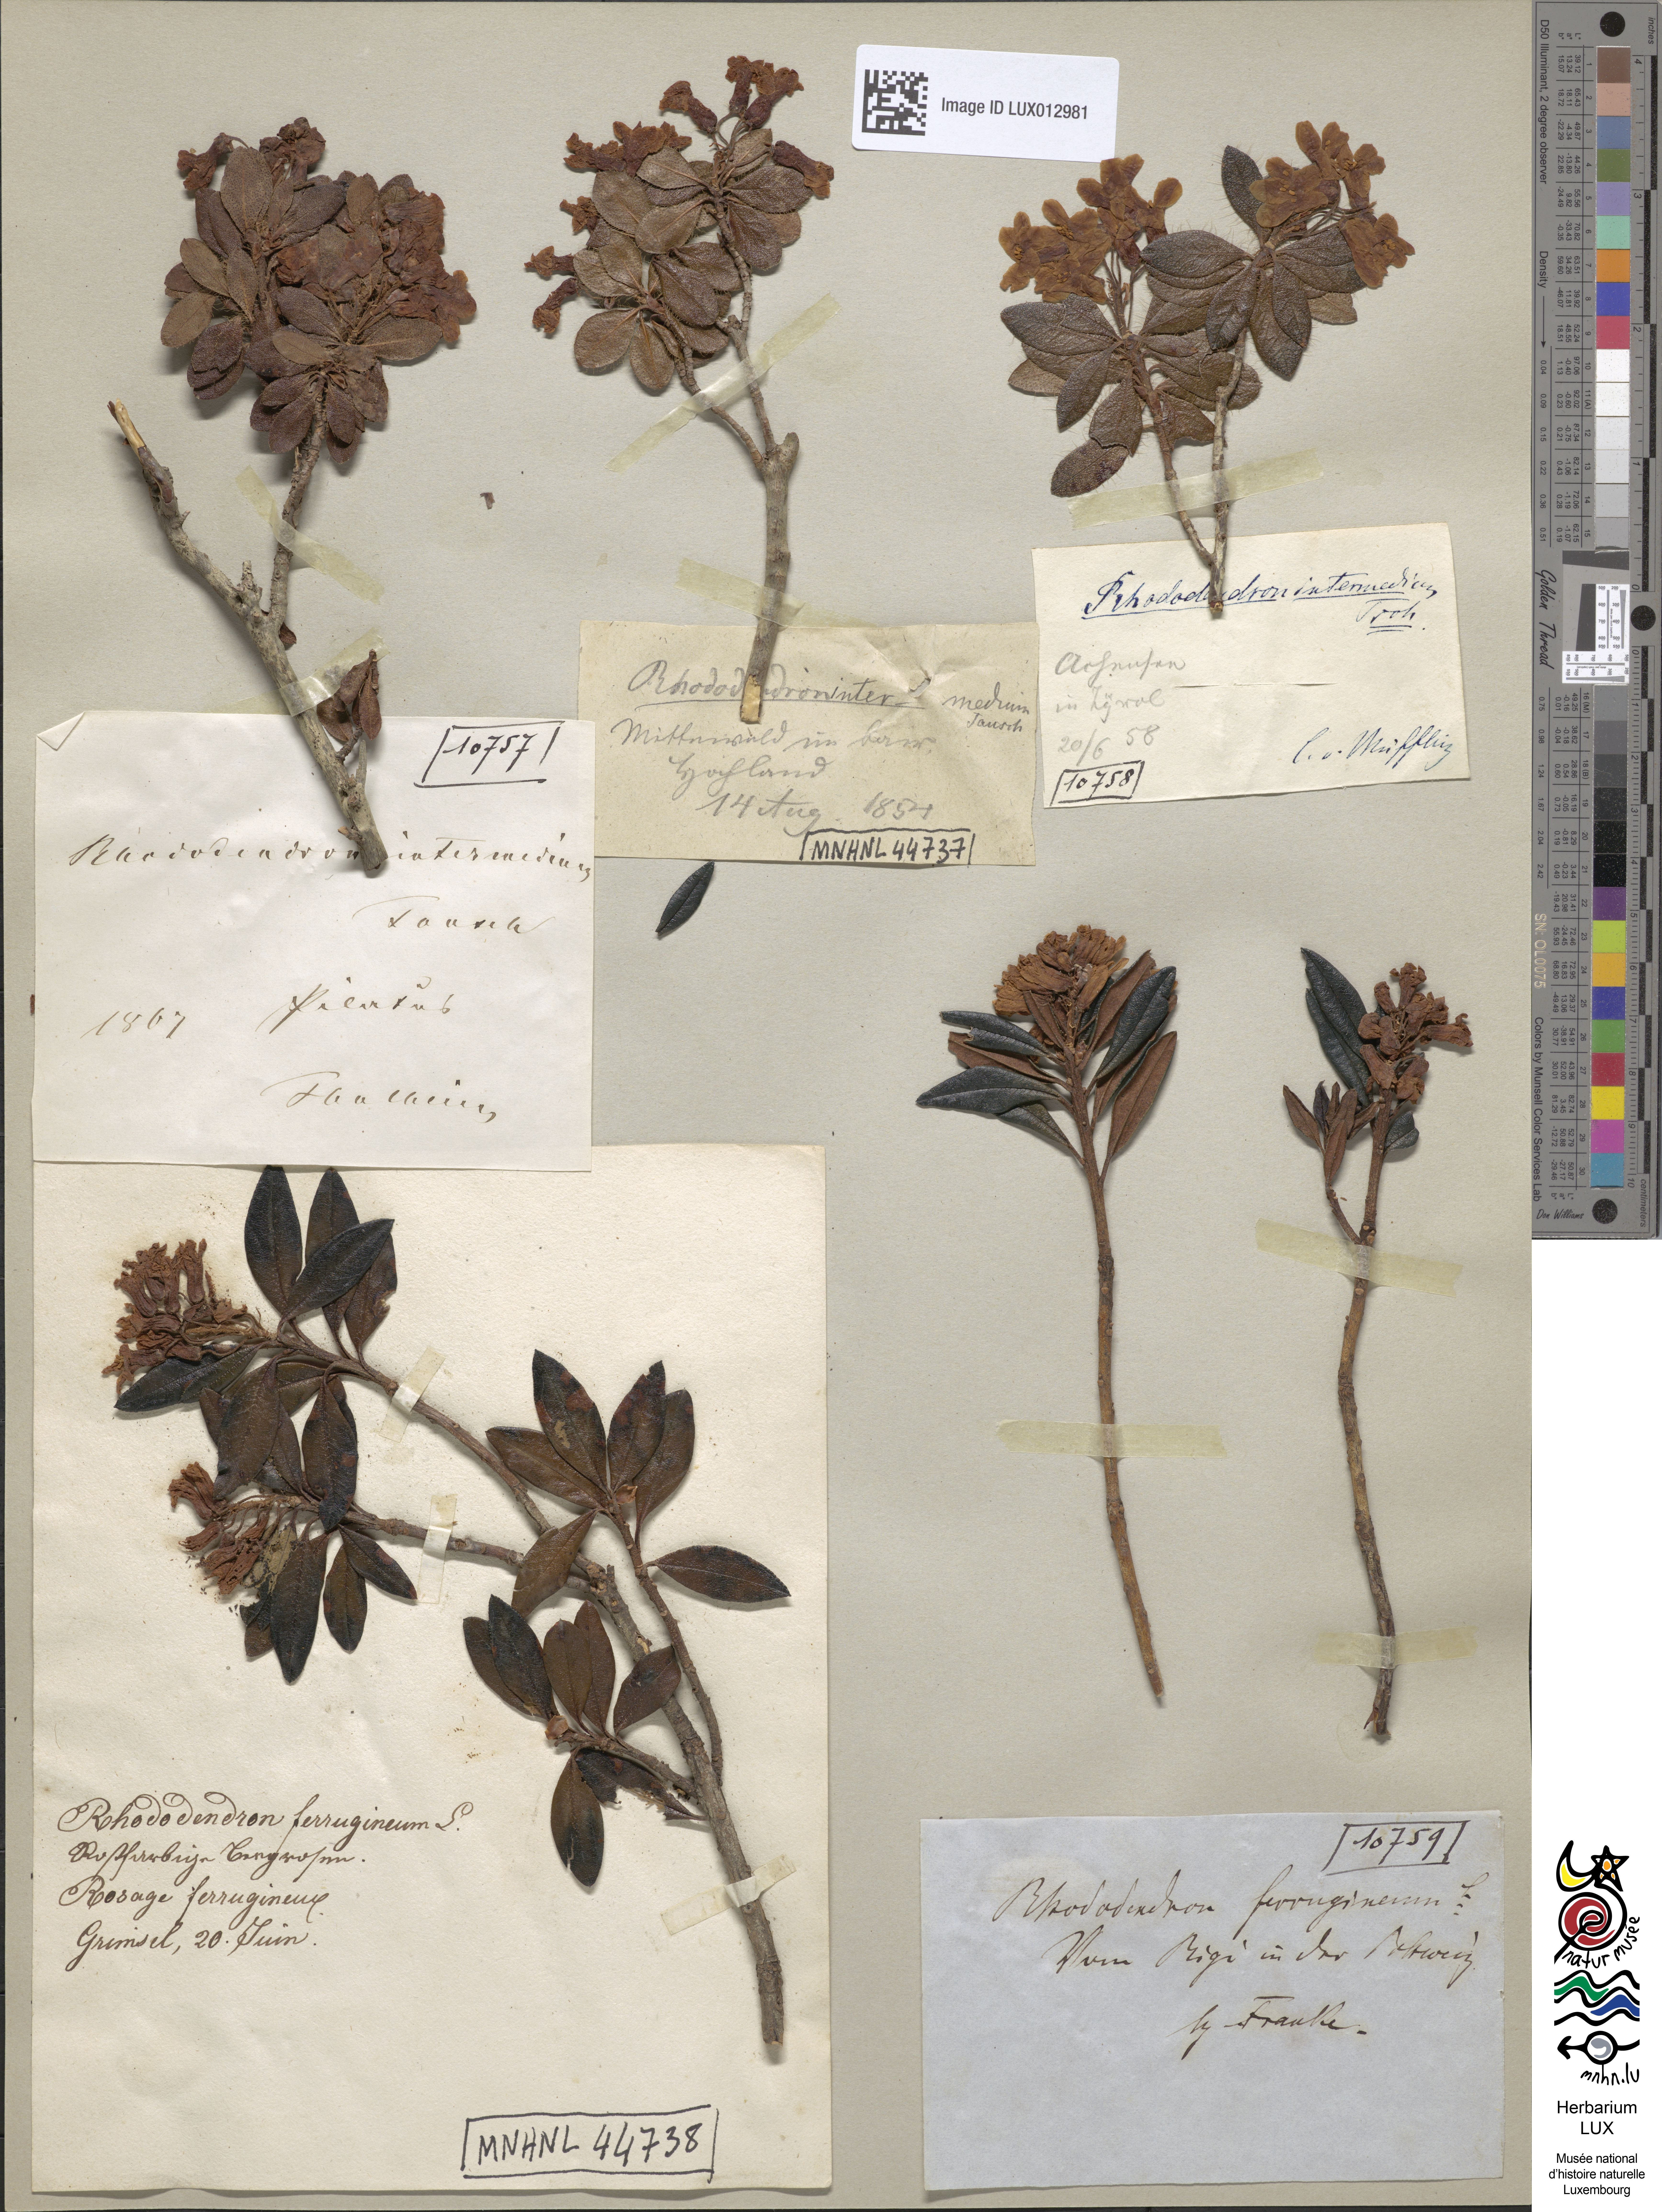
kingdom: Plantae
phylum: Tracheophyta
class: Magnoliopsida
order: Ericales
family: Ericaceae
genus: Rhododendron
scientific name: Rhododendron
